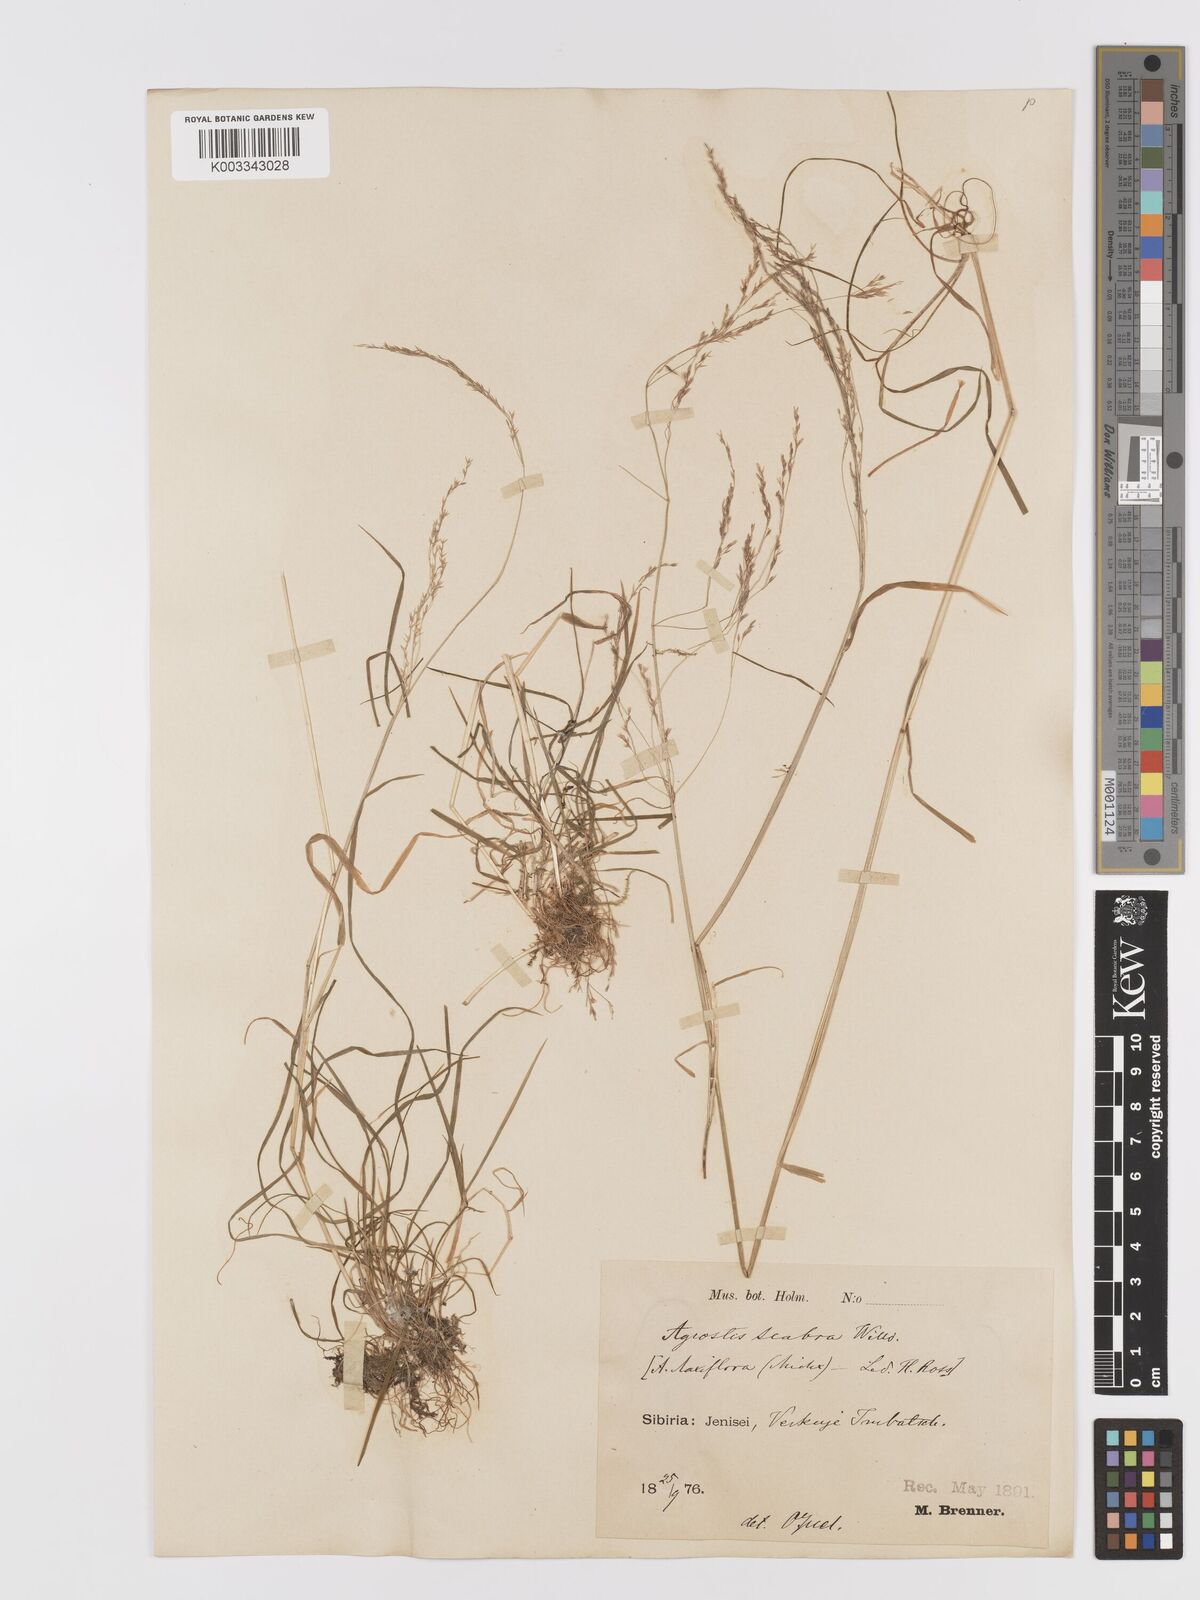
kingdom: Plantae
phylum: Tracheophyta
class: Liliopsida
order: Poales
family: Poaceae
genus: Agrostis
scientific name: Agrostis clavata
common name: Clavate bent
